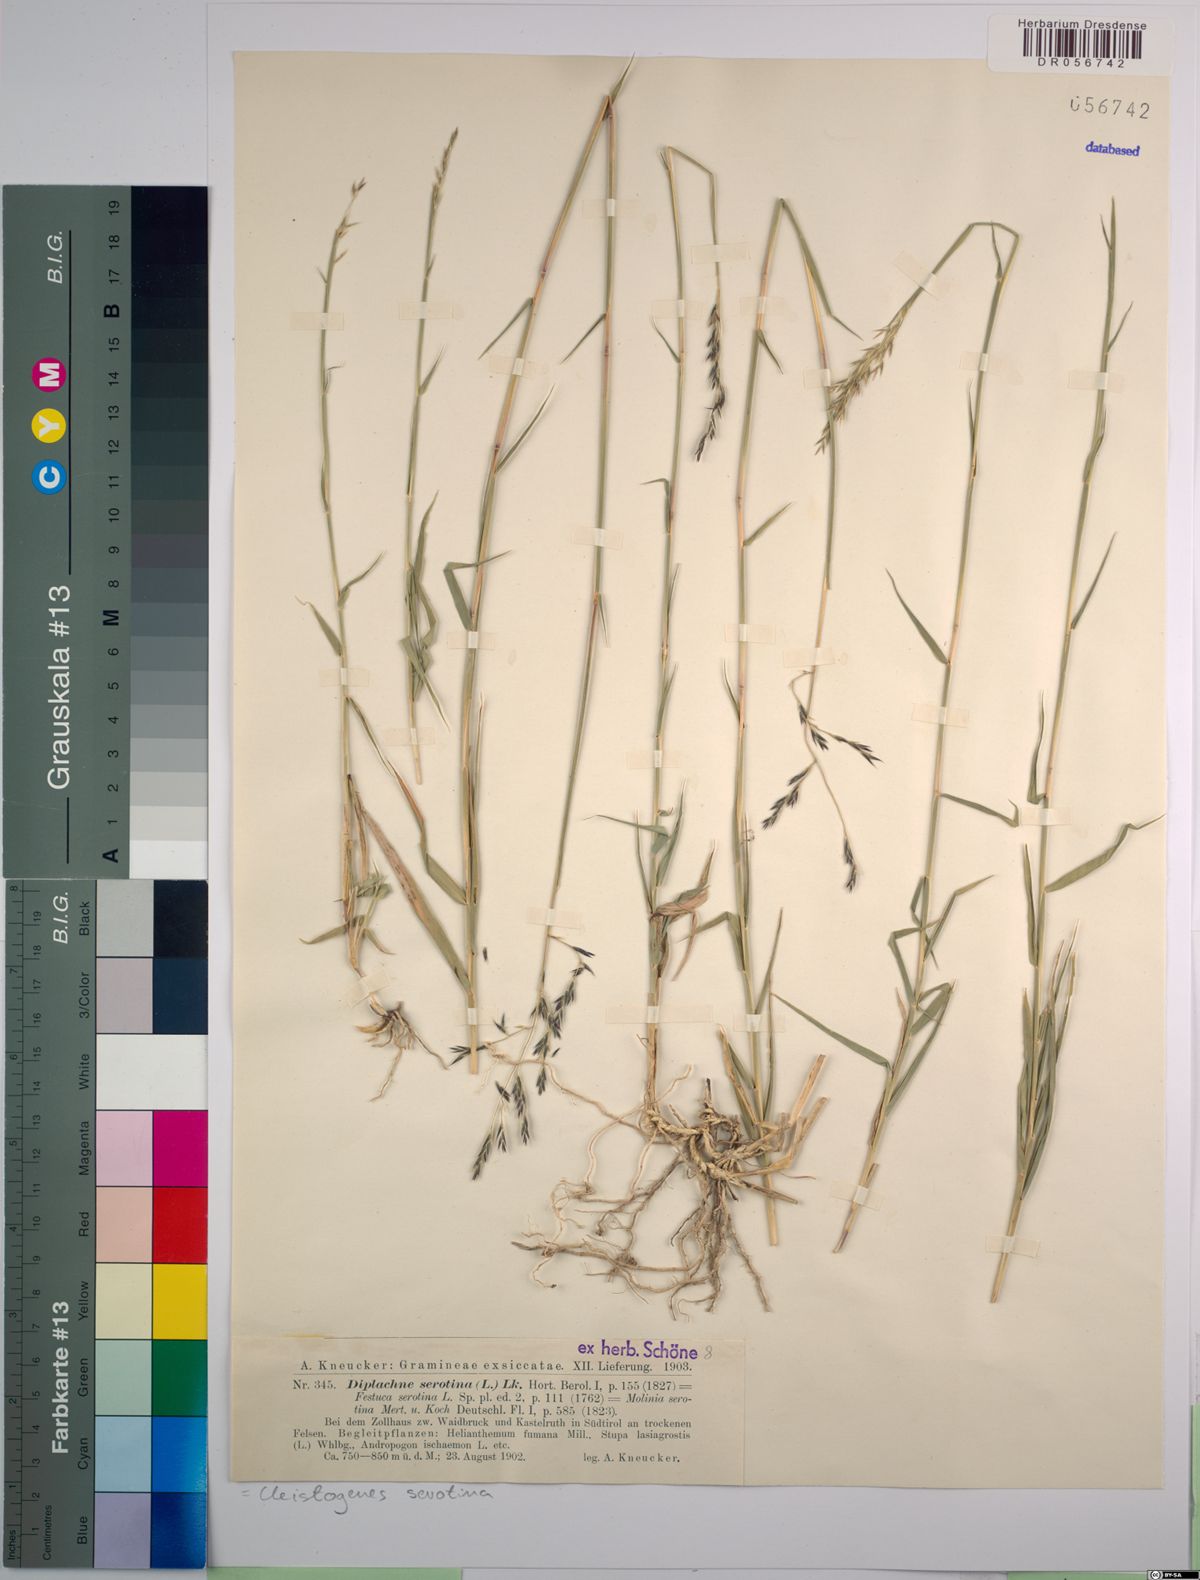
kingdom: Plantae
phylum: Tracheophyta
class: Liliopsida
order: Poales
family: Poaceae
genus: Cleistogenes
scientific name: Cleistogenes serotina
